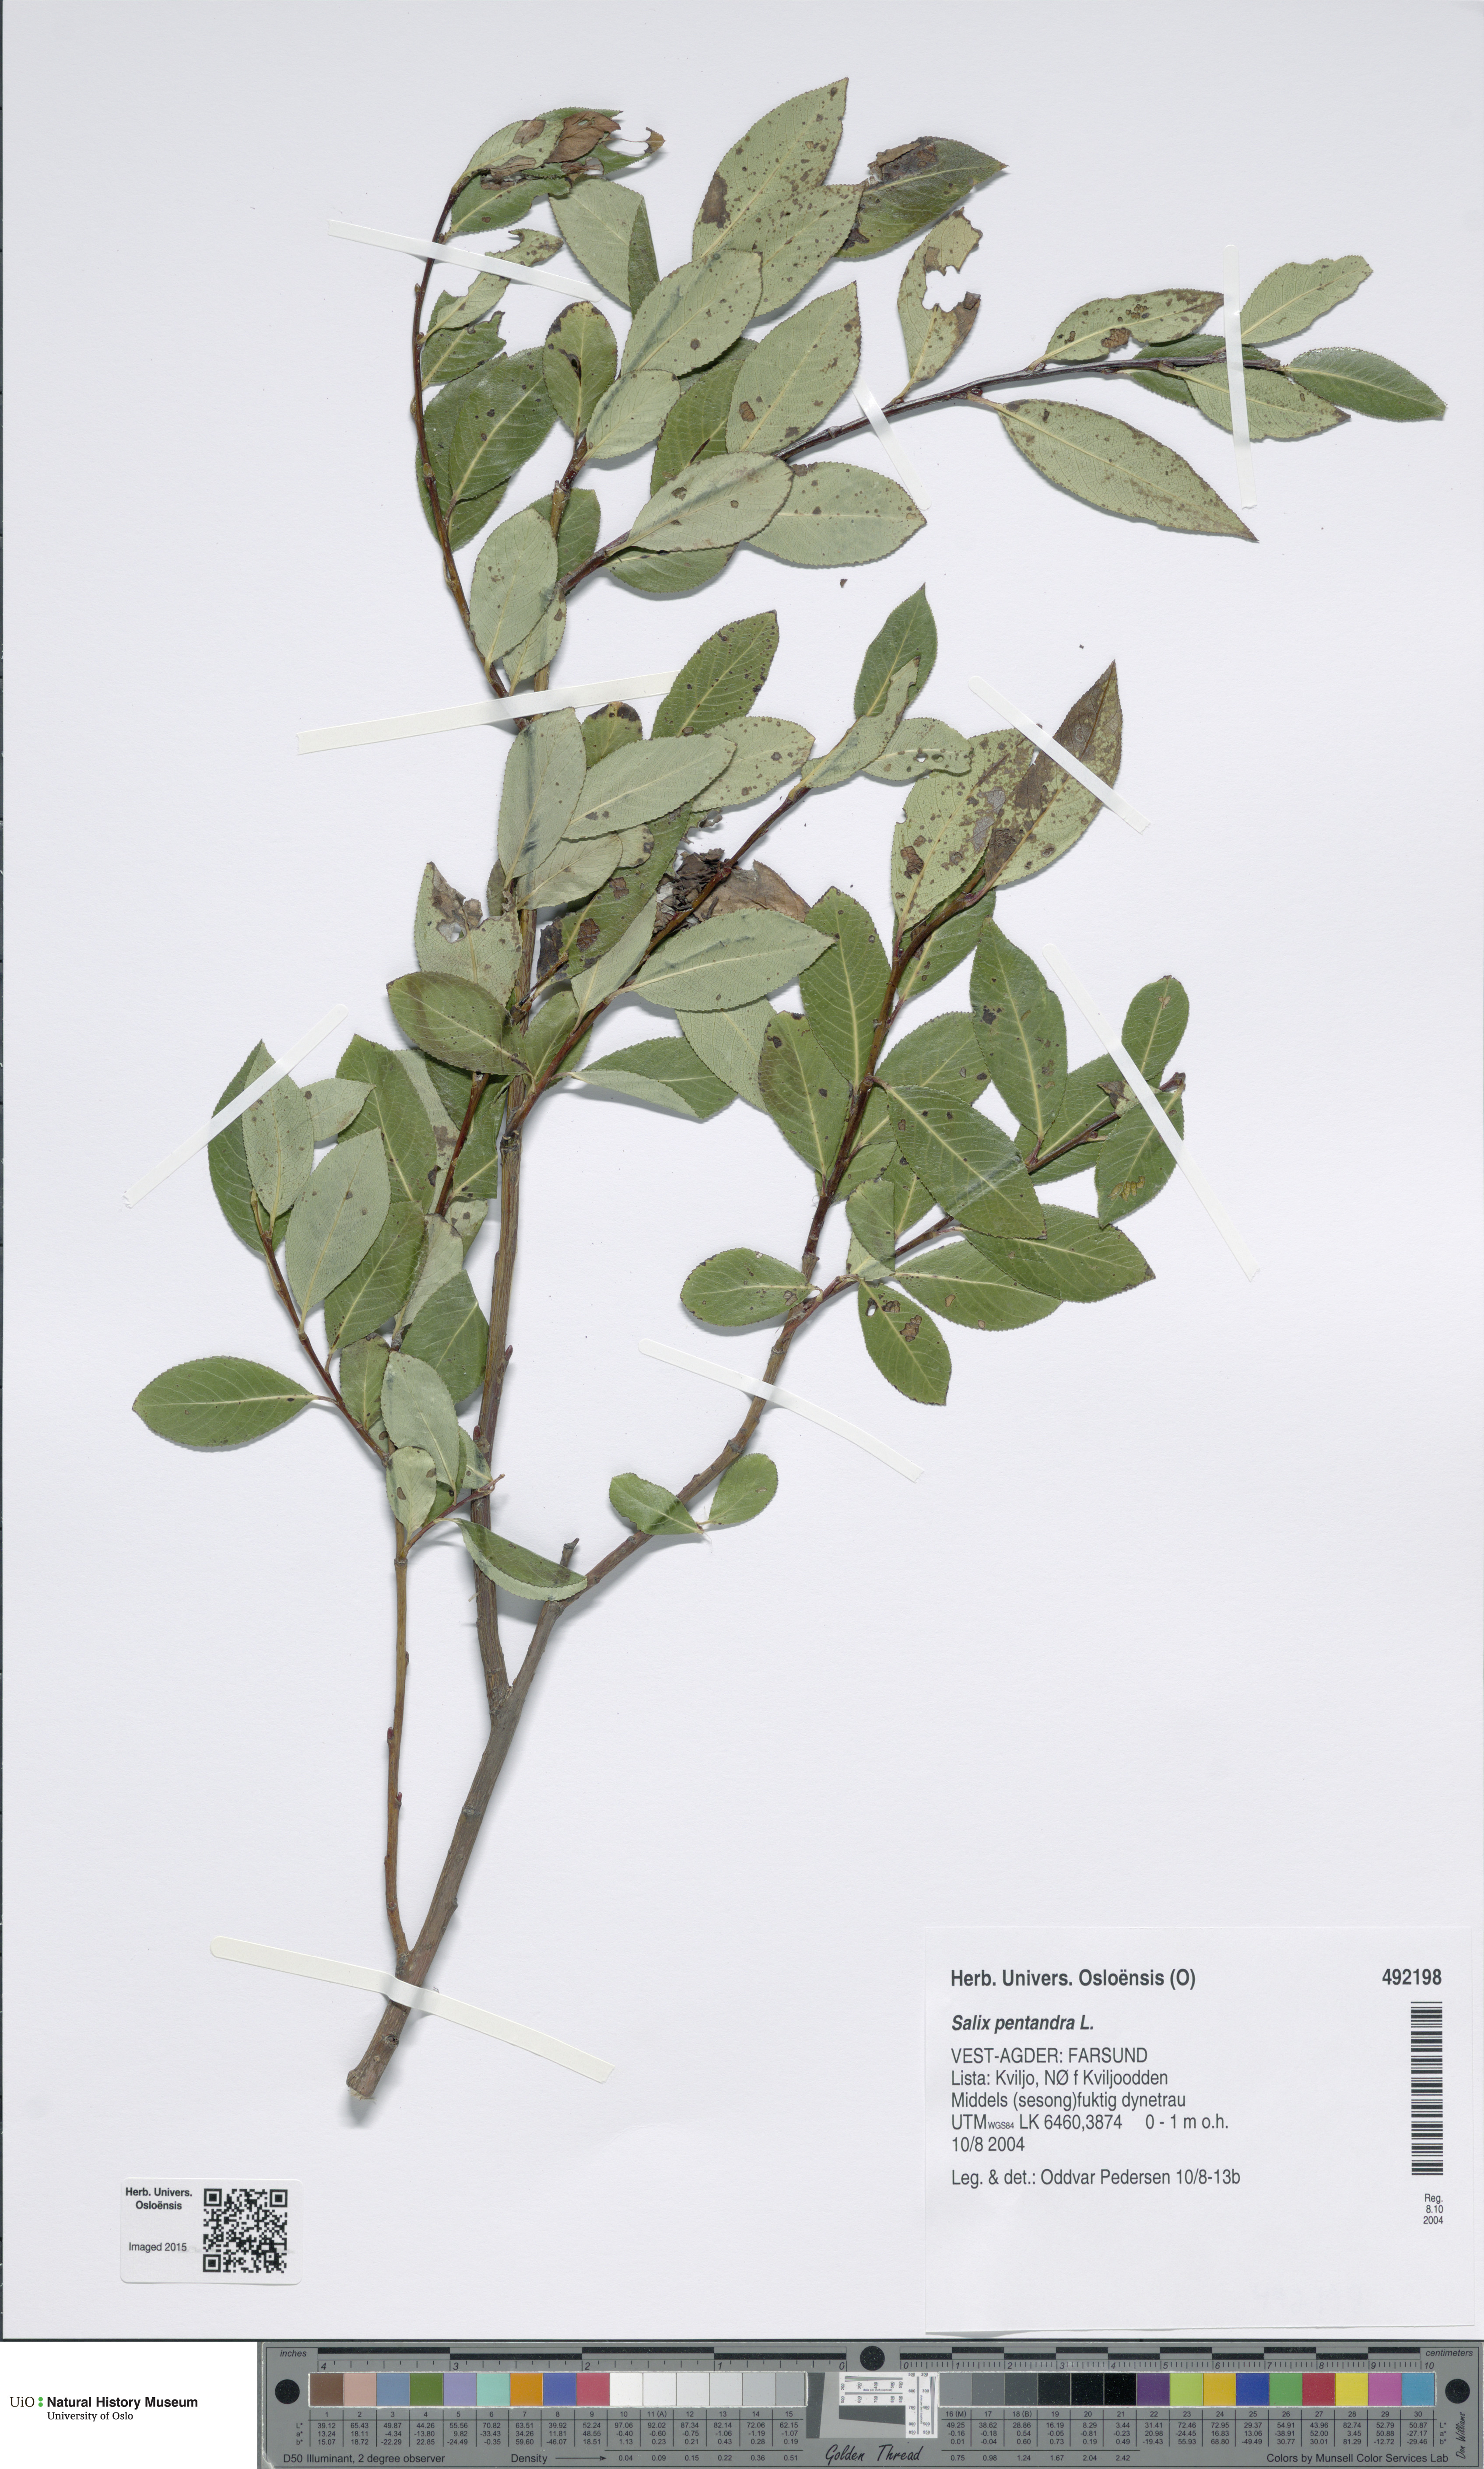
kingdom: Plantae
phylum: Tracheophyta
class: Magnoliopsida
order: Malpighiales
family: Salicaceae
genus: Salix
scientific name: Salix pentandra
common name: Bay willow
